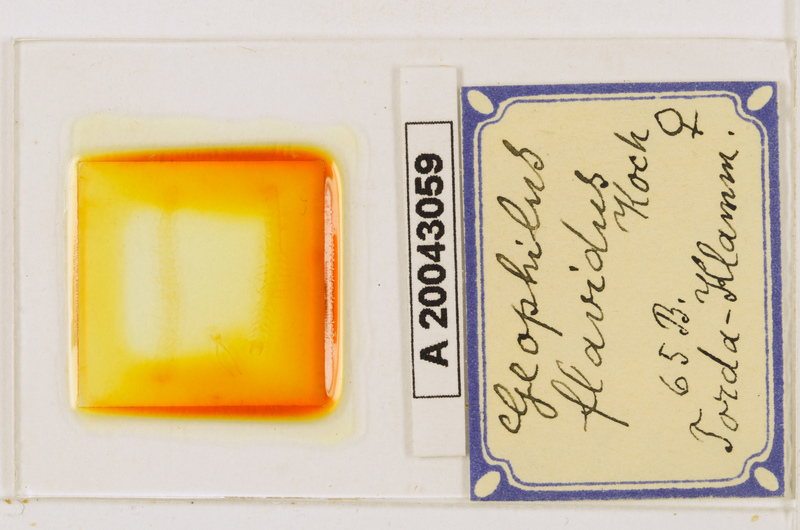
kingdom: Animalia
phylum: Arthropoda
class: Chilopoda
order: Geophilomorpha
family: Geophilidae
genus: Clinopodes
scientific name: Clinopodes flavidus
